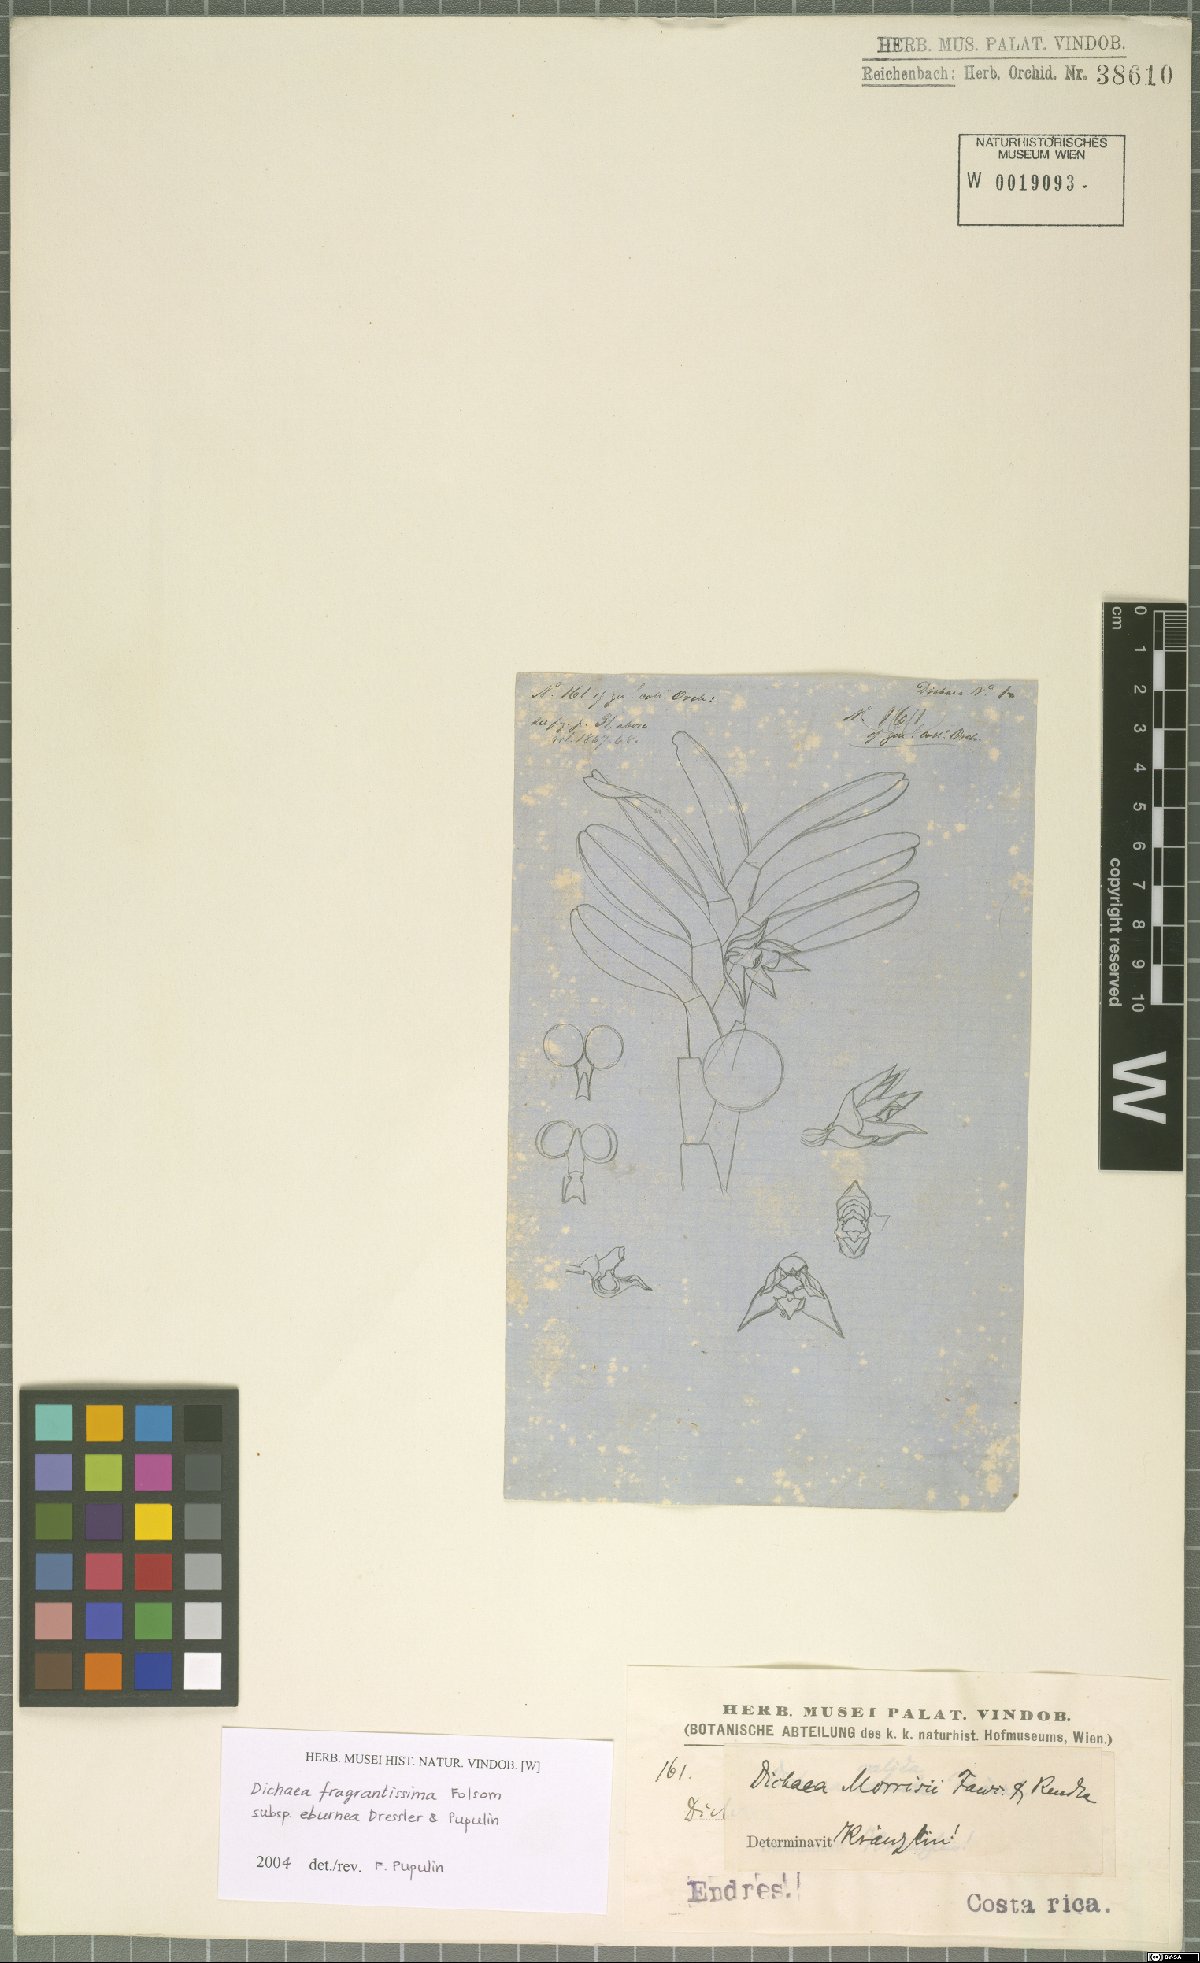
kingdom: Plantae
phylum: Tracheophyta
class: Liliopsida
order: Asparagales
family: Orchidaceae
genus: Dichaea
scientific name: Dichaea eburnea
